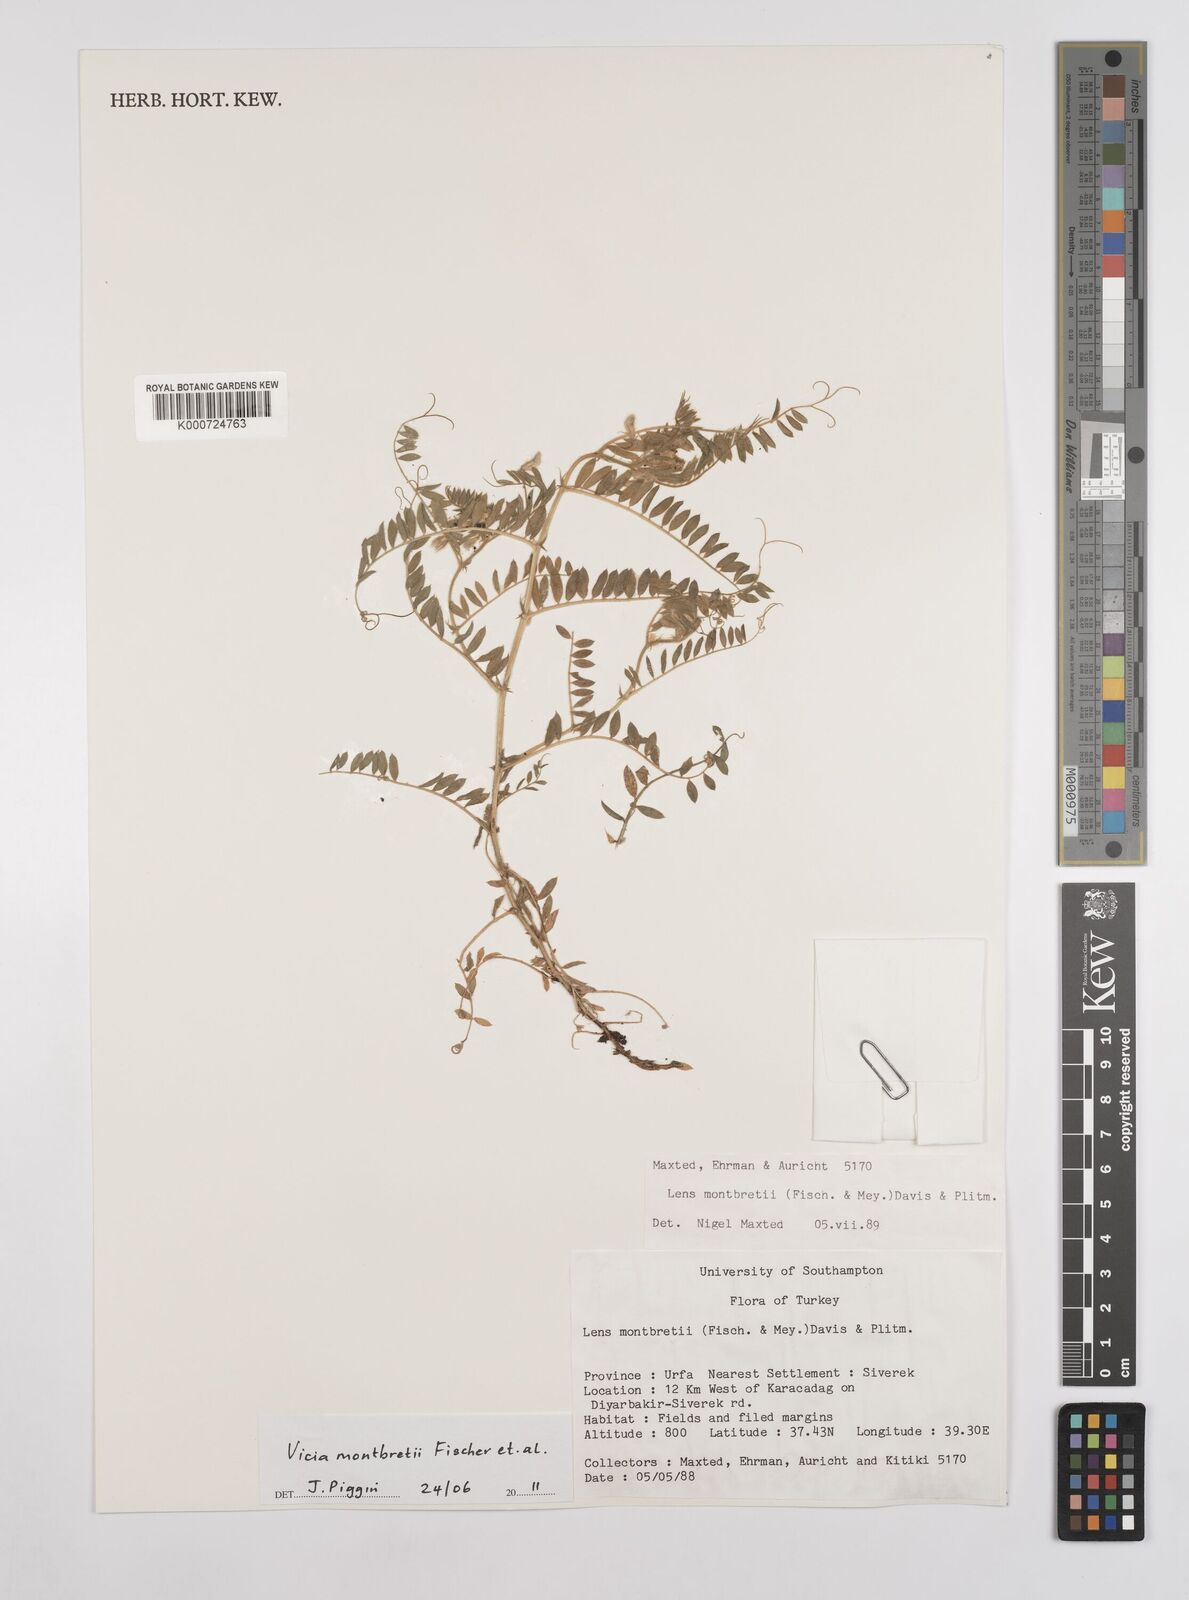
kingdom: Plantae
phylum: Tracheophyta
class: Magnoliopsida
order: Fabales
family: Fabaceae
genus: Vicia
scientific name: Vicia montbretii
